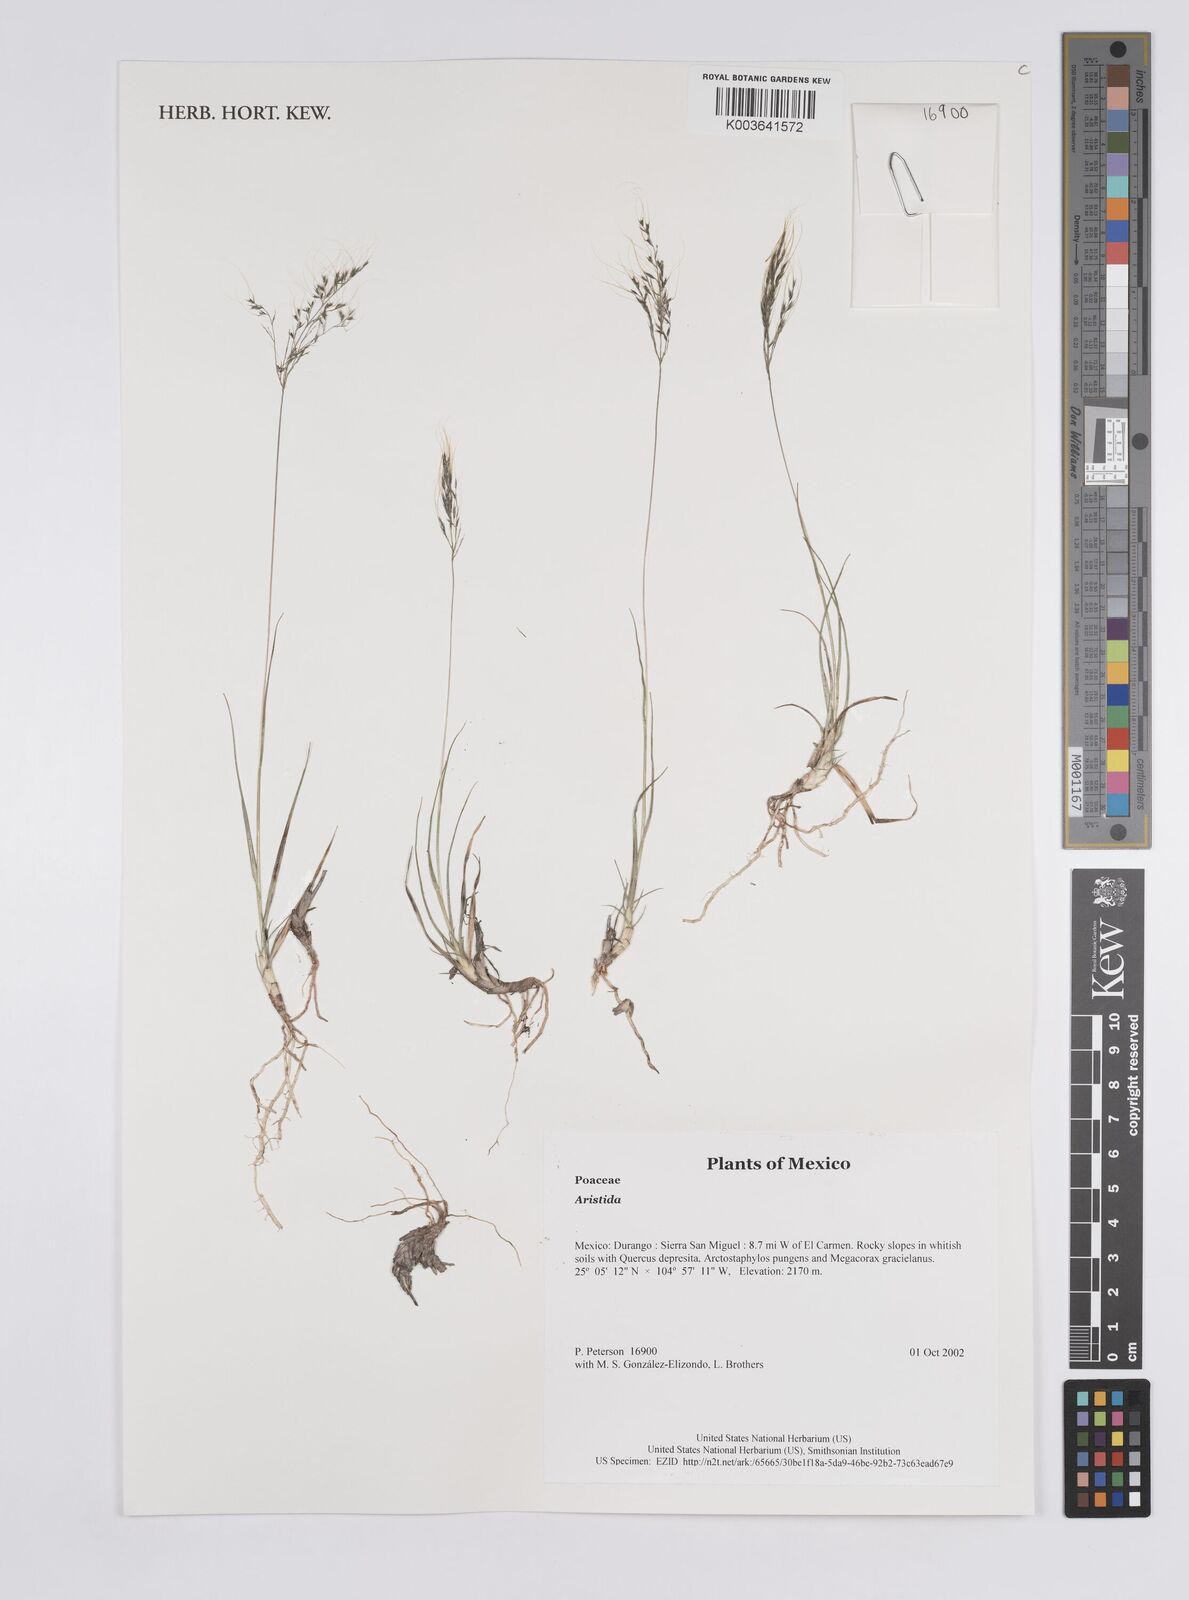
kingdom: Plantae
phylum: Tracheophyta
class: Liliopsida
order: Poales
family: Poaceae
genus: Aristida
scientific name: Aristida
